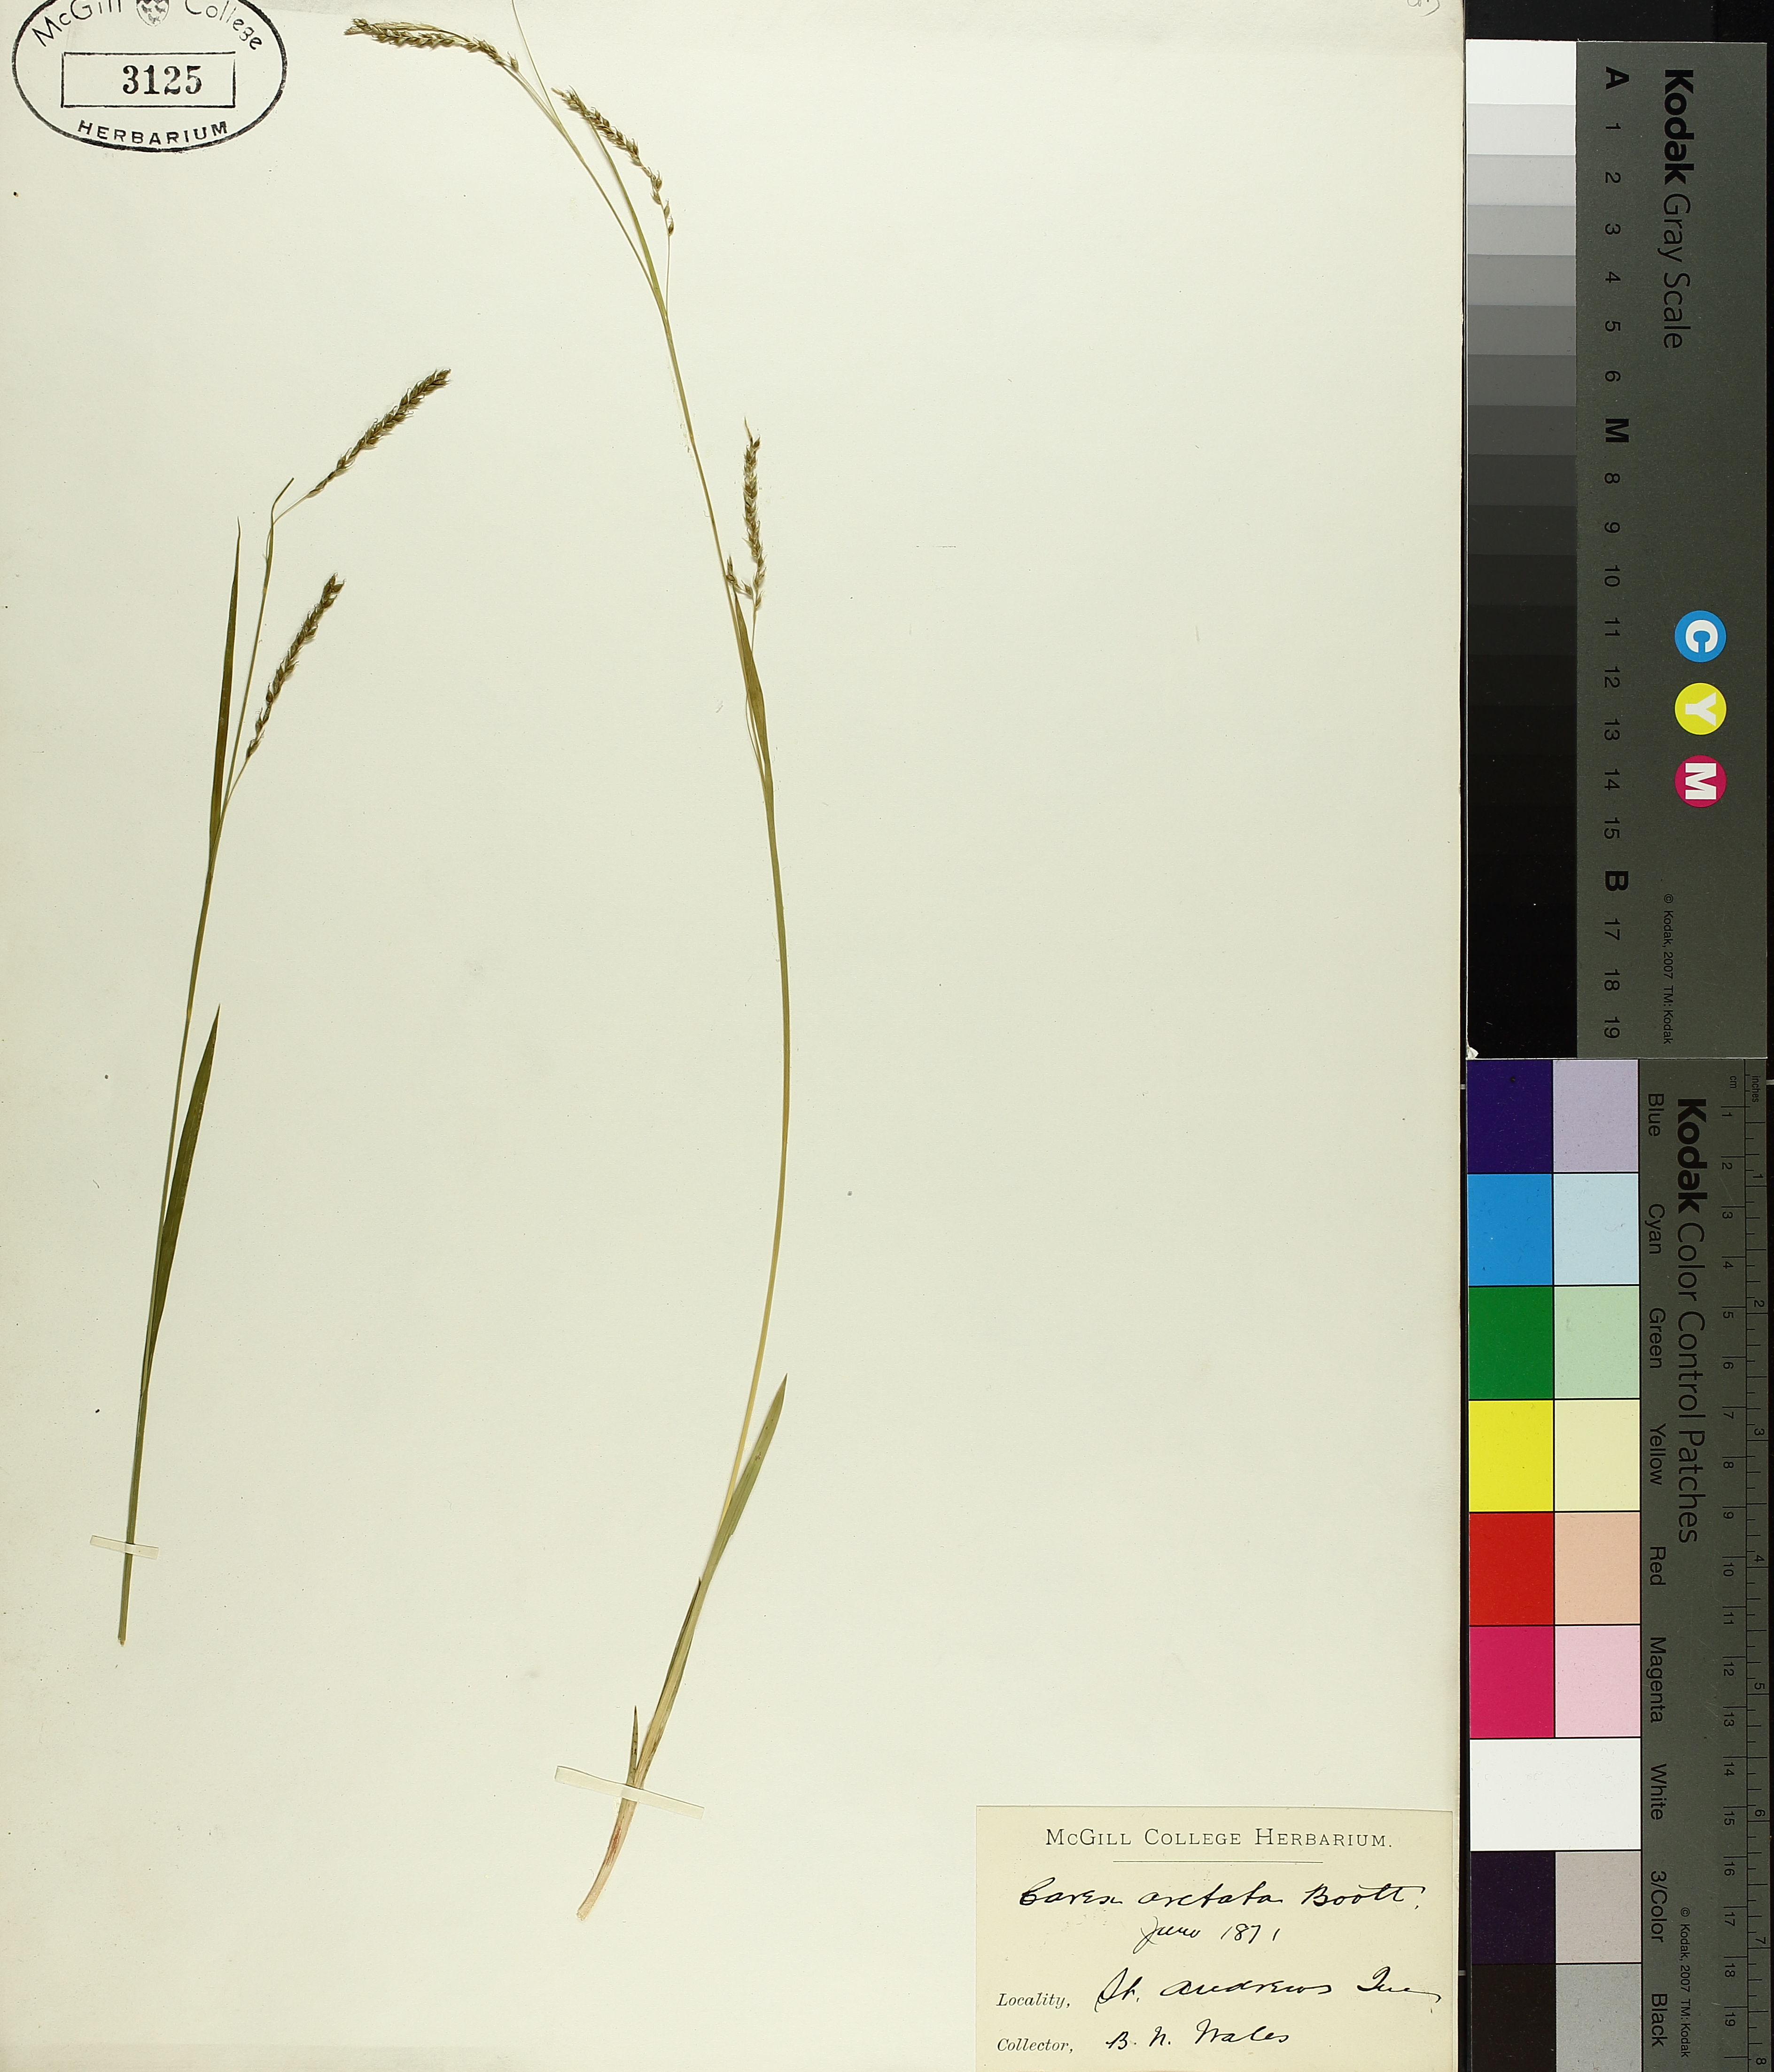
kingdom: Plantae
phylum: Tracheophyta
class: Liliopsida
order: Poales
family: Cyperaceae
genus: Carex
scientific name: Carex aurea
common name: Golden sedge
